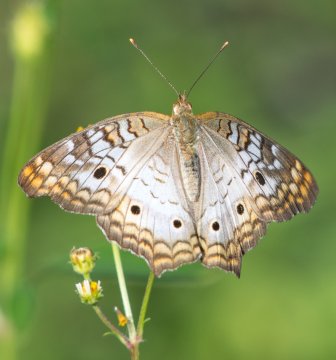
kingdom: Animalia
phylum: Arthropoda
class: Insecta
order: Lepidoptera
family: Nymphalidae
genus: Anartia
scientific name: Anartia jatrophae
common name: White Peacock
